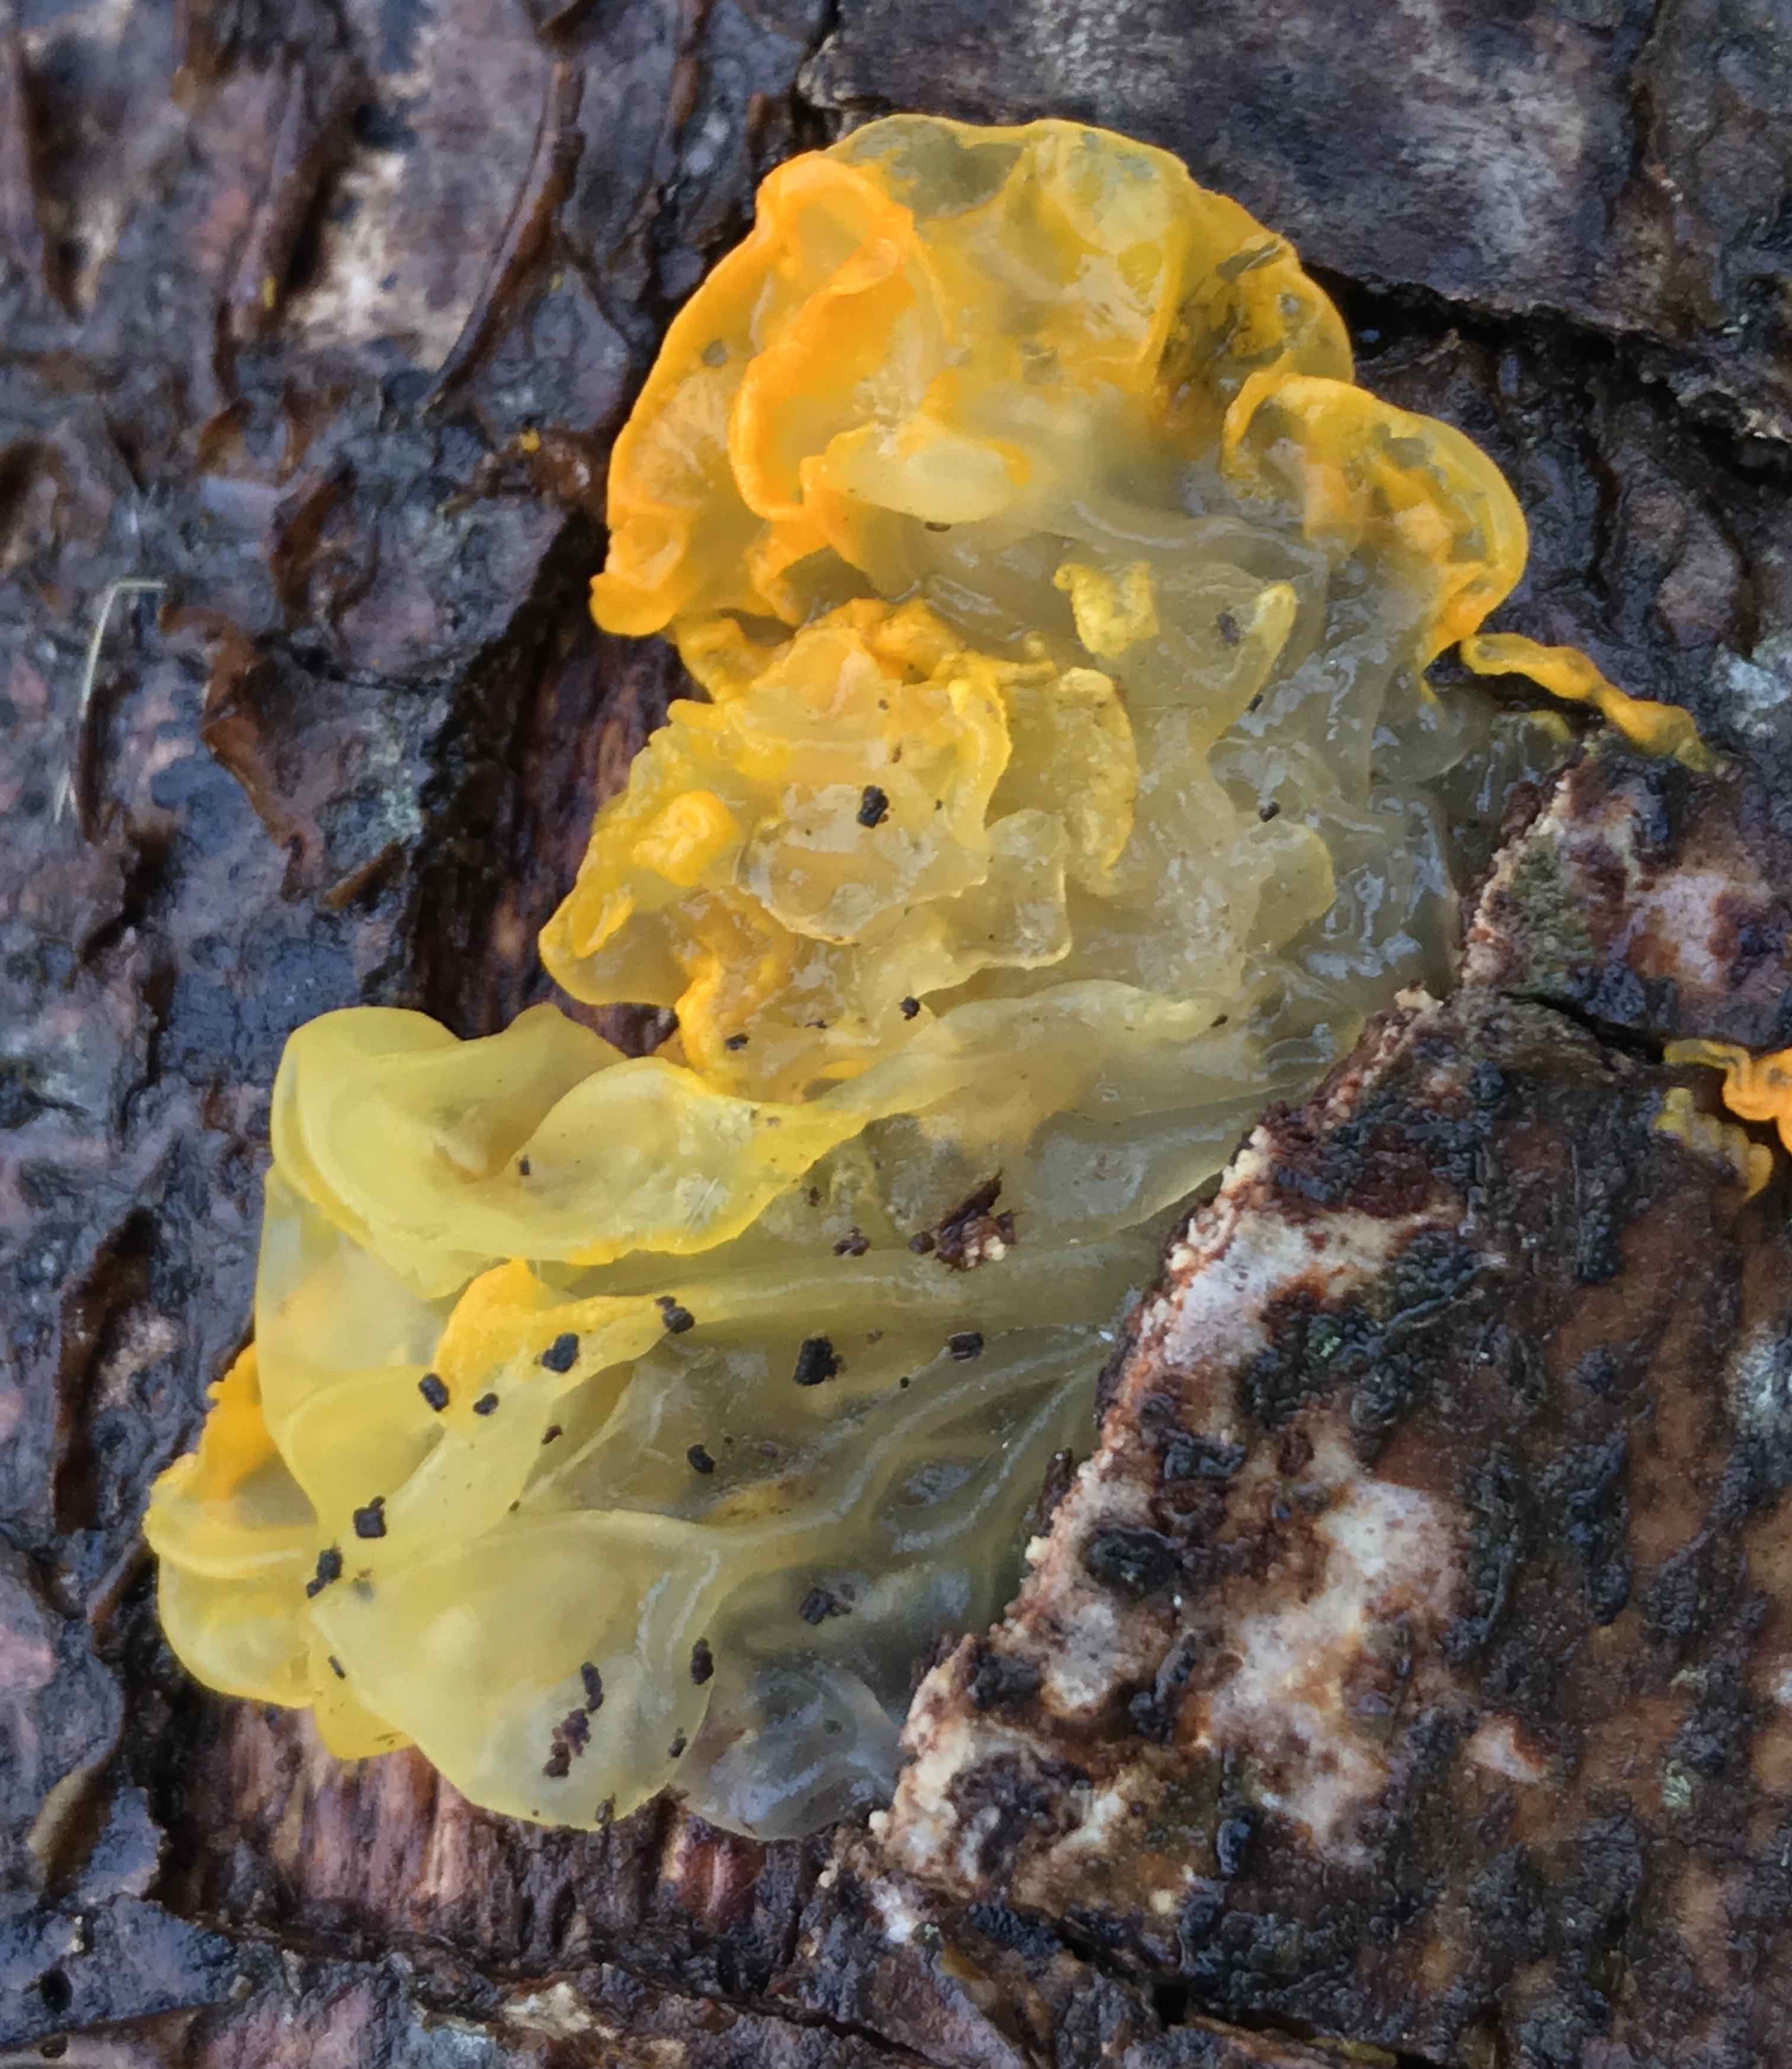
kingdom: Fungi
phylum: Basidiomycota
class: Tremellomycetes
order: Tremellales
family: Tremellaceae
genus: Tremella
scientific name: Tremella mesenterica
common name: gul bævresvamp
